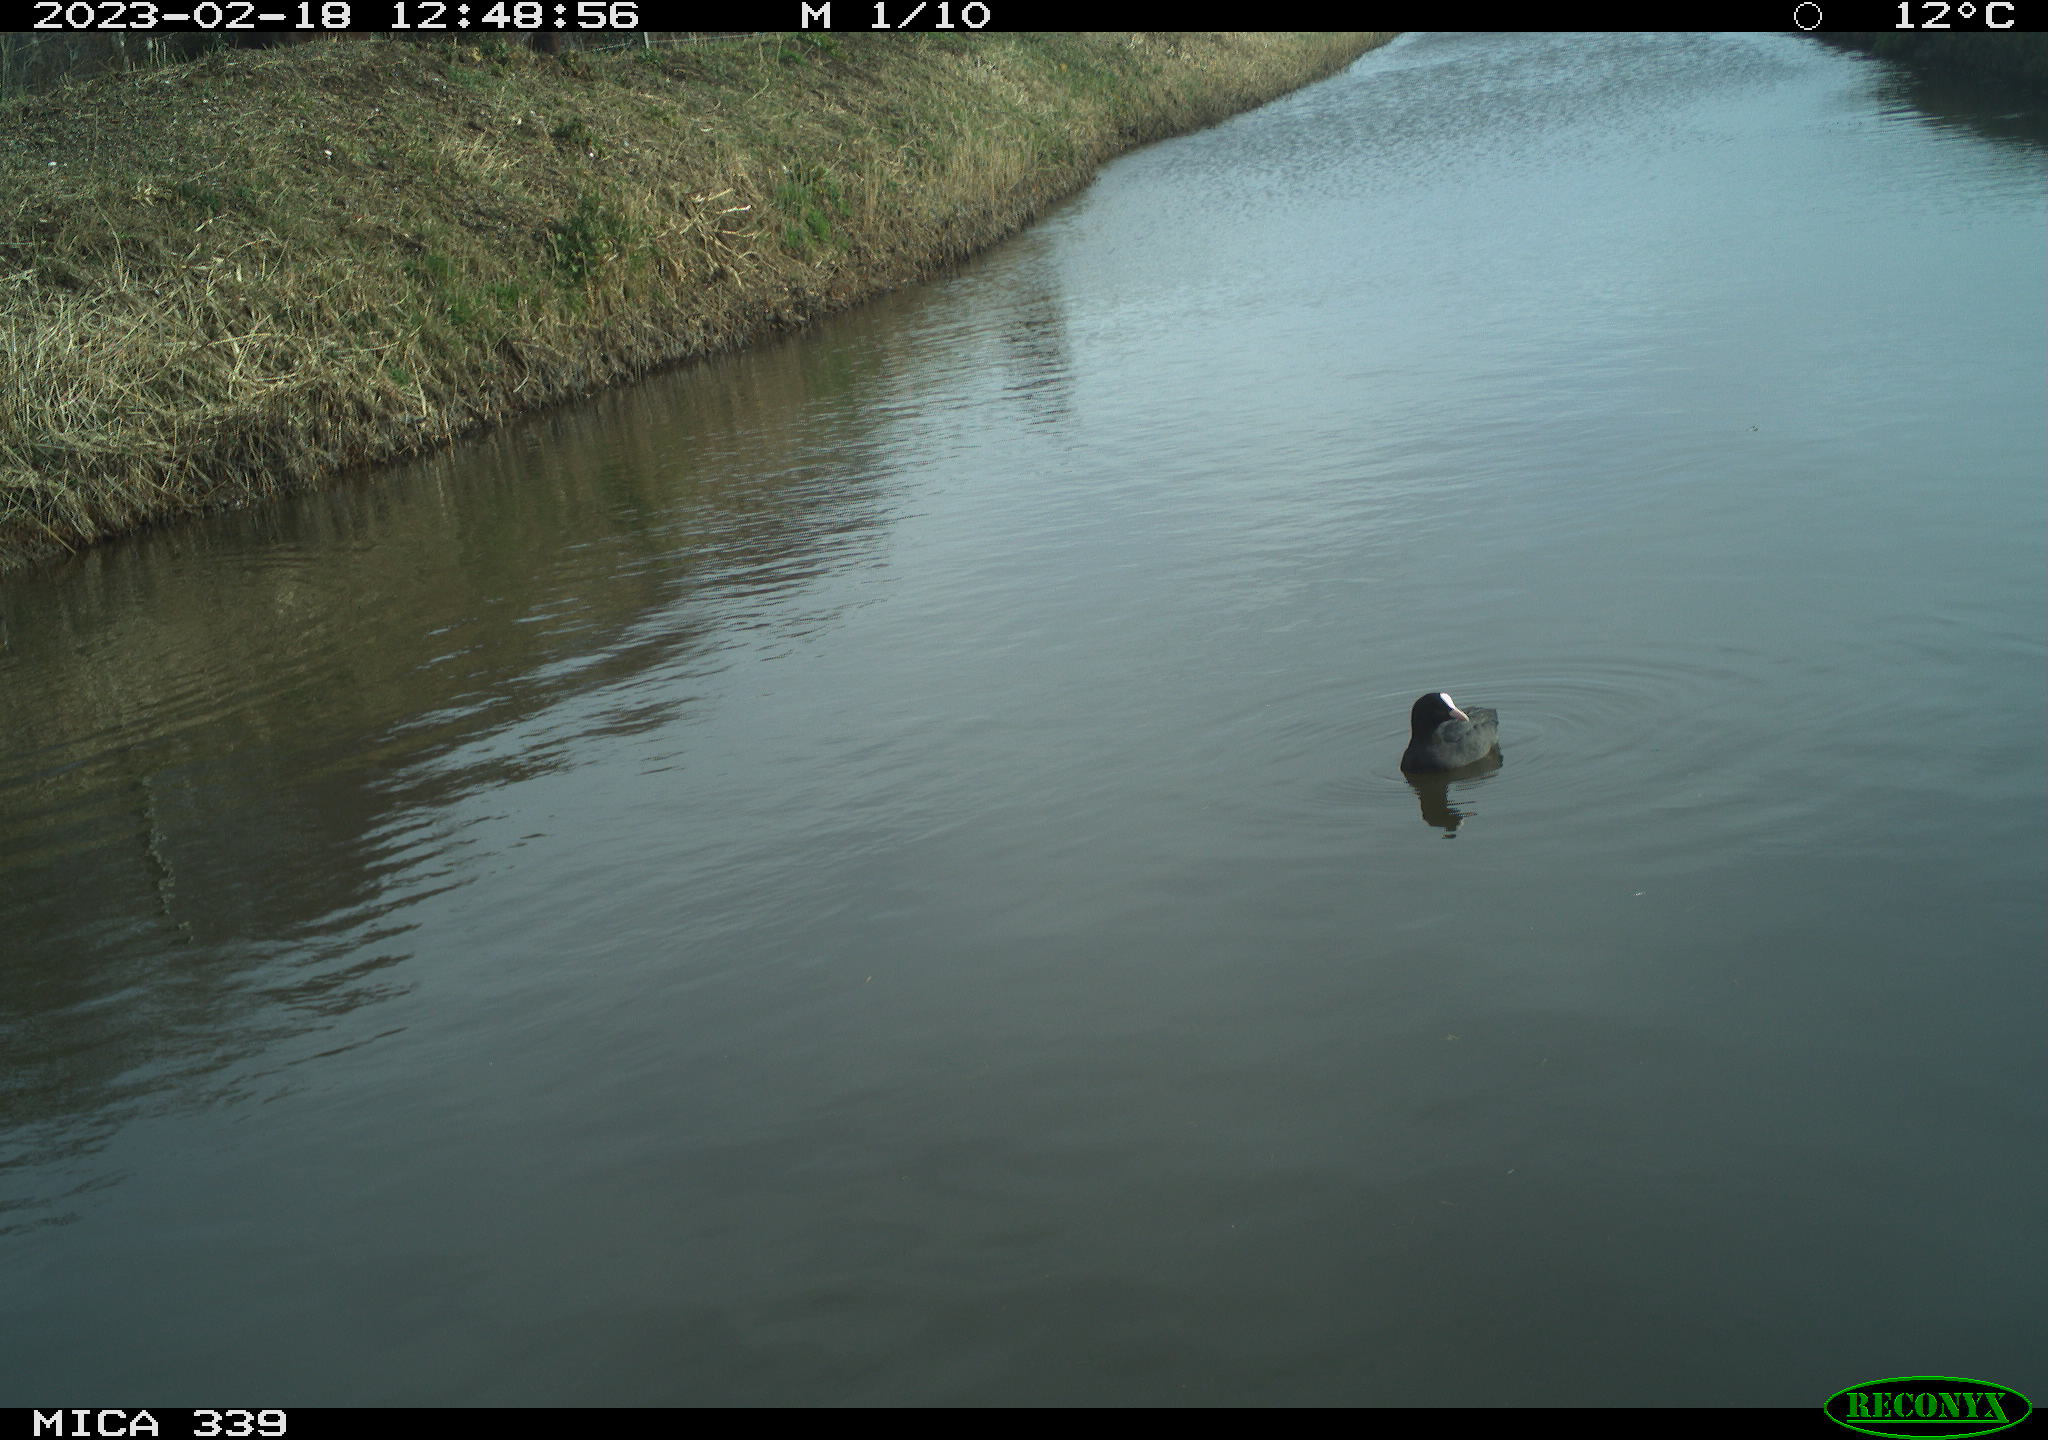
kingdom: Animalia
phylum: Chordata
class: Aves
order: Gruiformes
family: Rallidae
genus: Gallinula
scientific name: Gallinula chloropus
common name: Common moorhen
